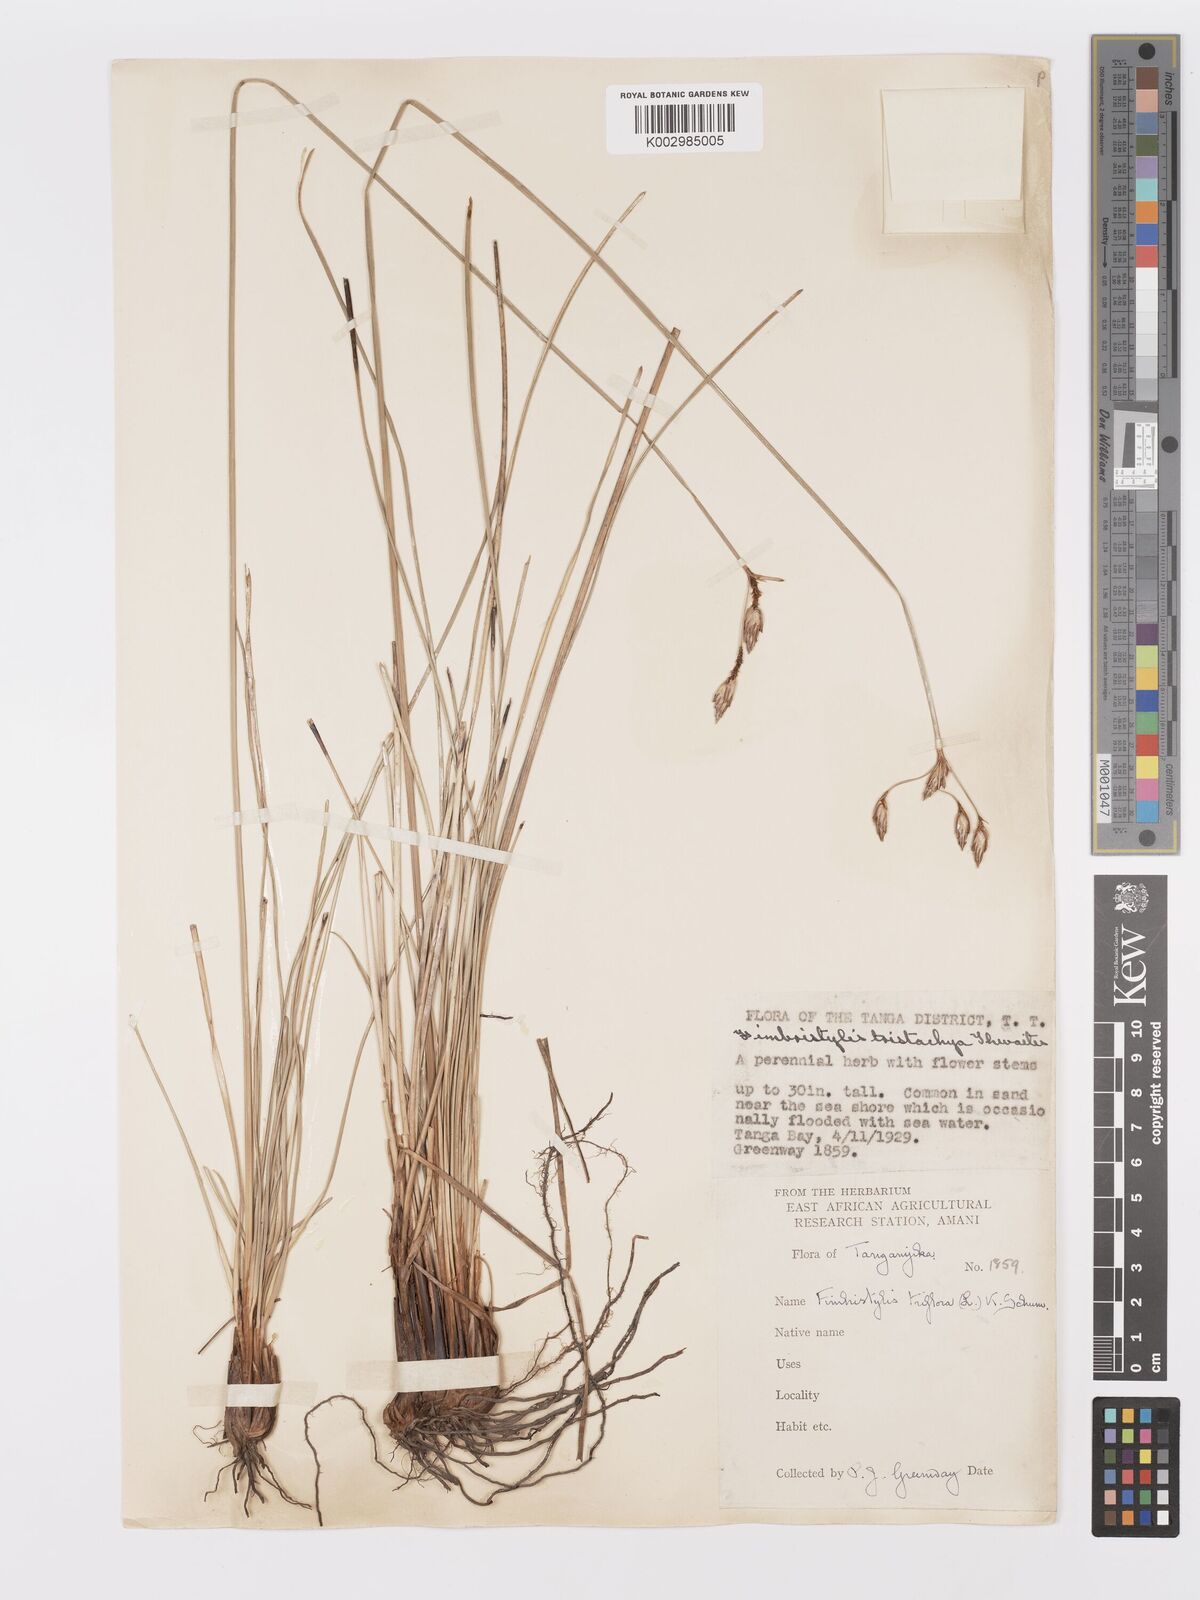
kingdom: Plantae
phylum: Tracheophyta
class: Liliopsida
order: Poales
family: Cyperaceae
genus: Abildgaardia
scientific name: Abildgaardia triflora
